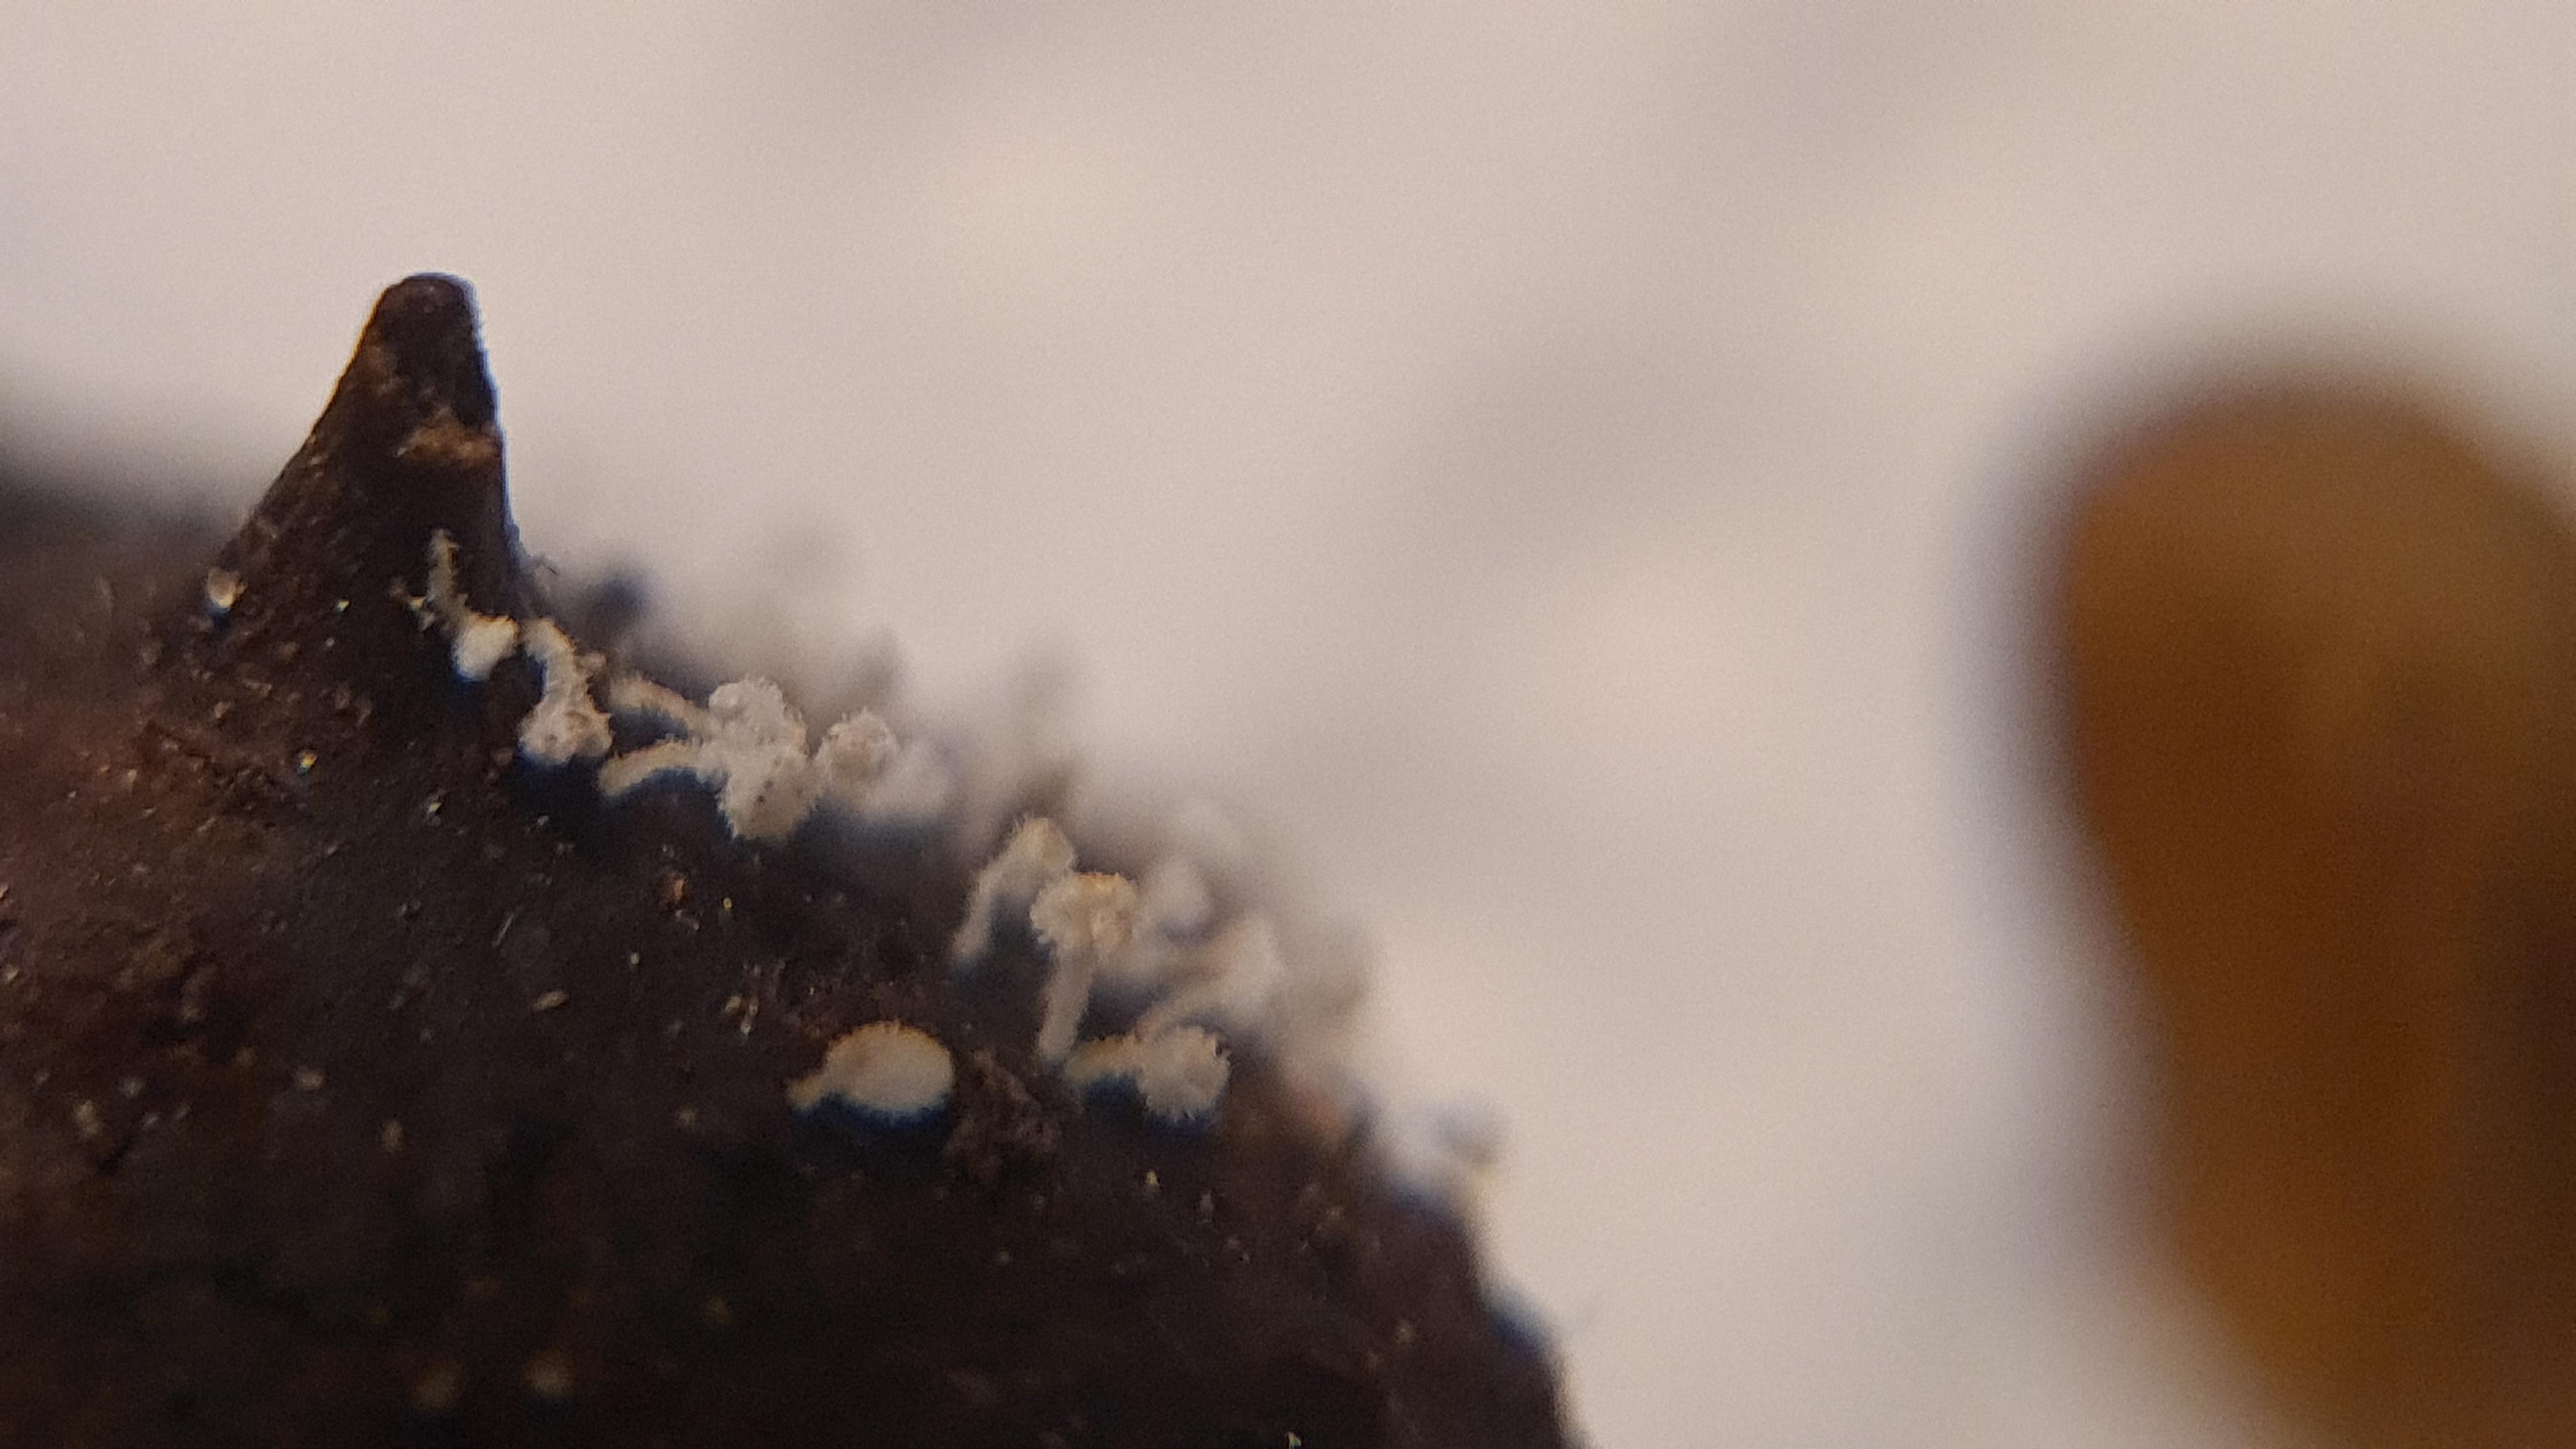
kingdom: Fungi
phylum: Ascomycota
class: Leotiomycetes
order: Helotiales
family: Lachnaceae
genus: Lachnum
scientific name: Lachnum virgineum
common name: jomfru-frynseskive
